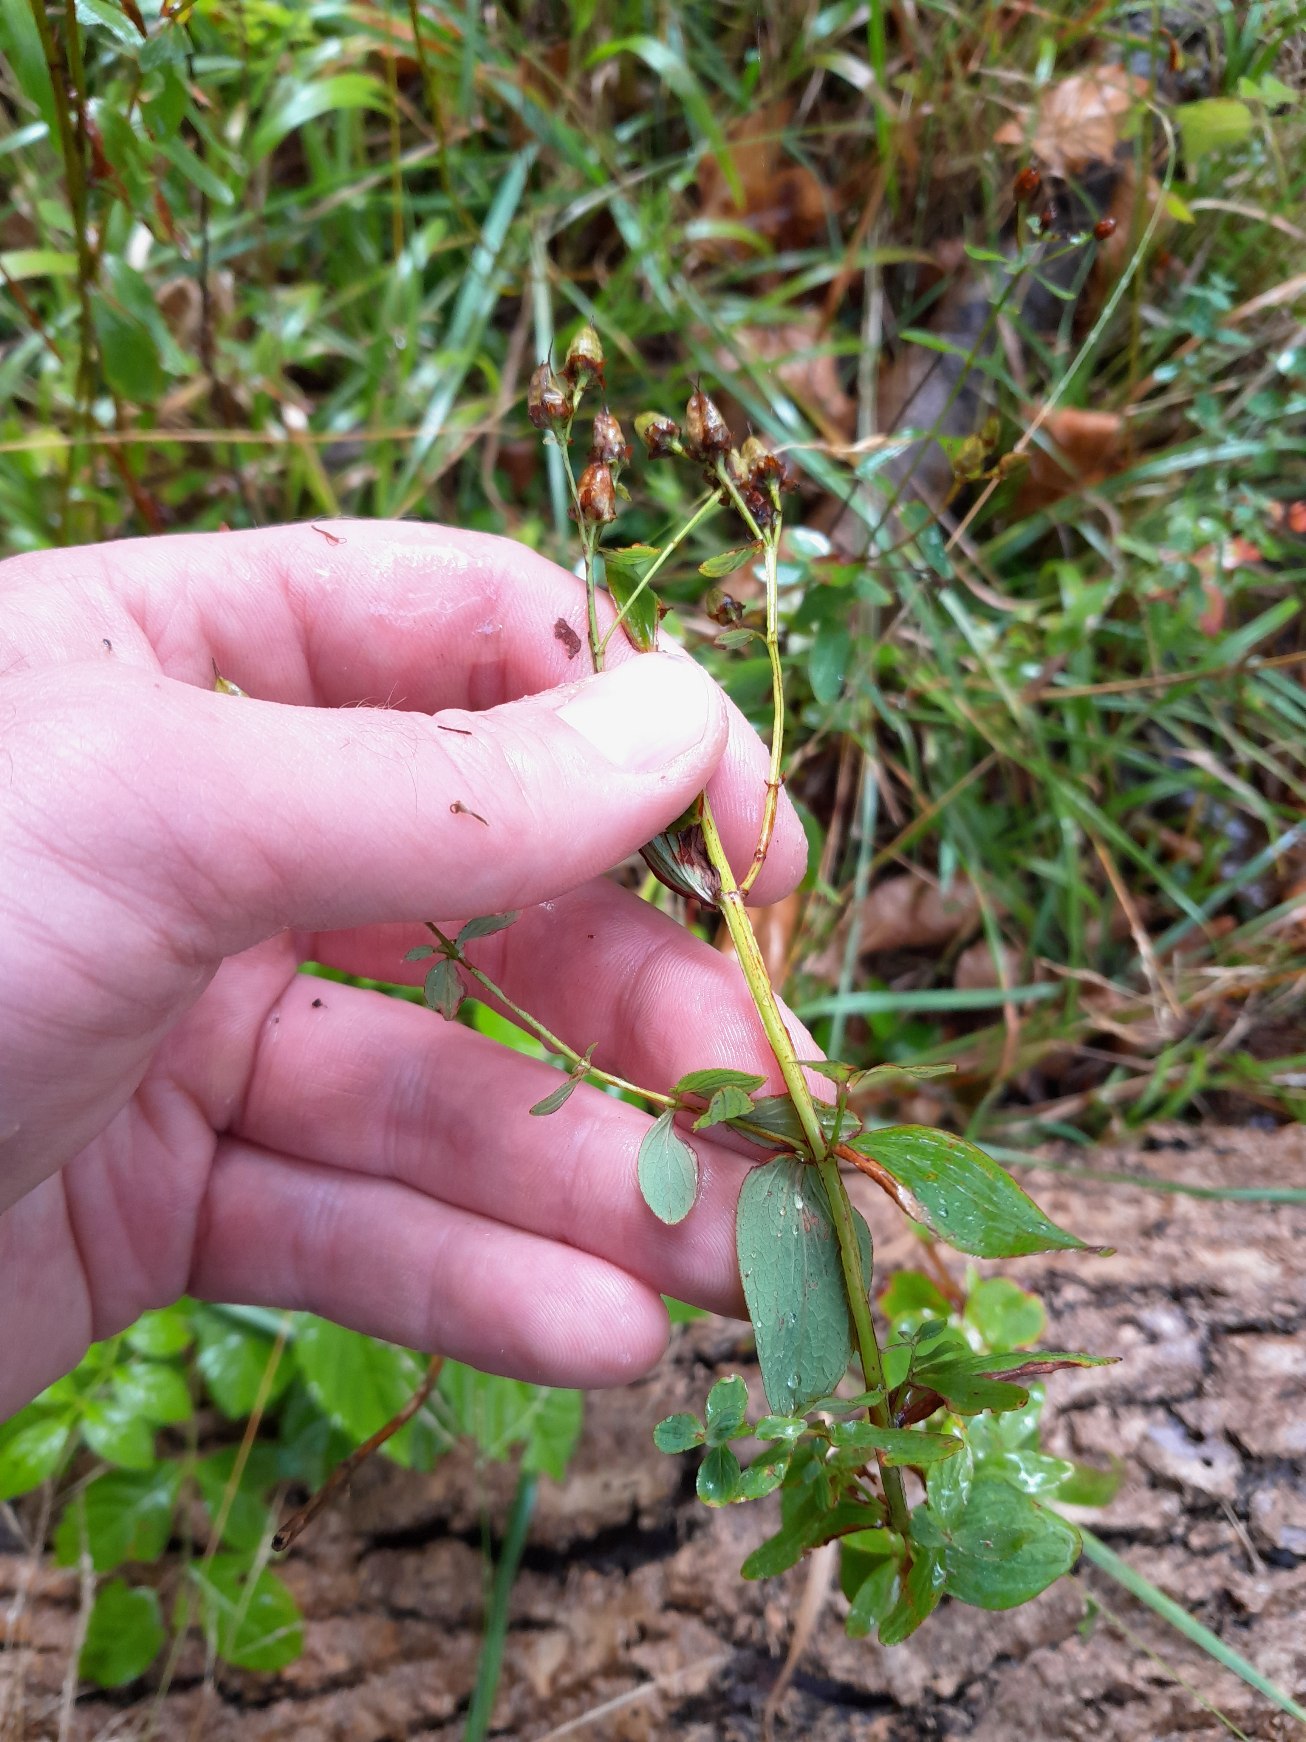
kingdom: Plantae
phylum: Tracheophyta
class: Magnoliopsida
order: Malpighiales
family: Hypericaceae
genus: Hypericum
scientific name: Hypericum maculatum
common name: Kantet perikon
